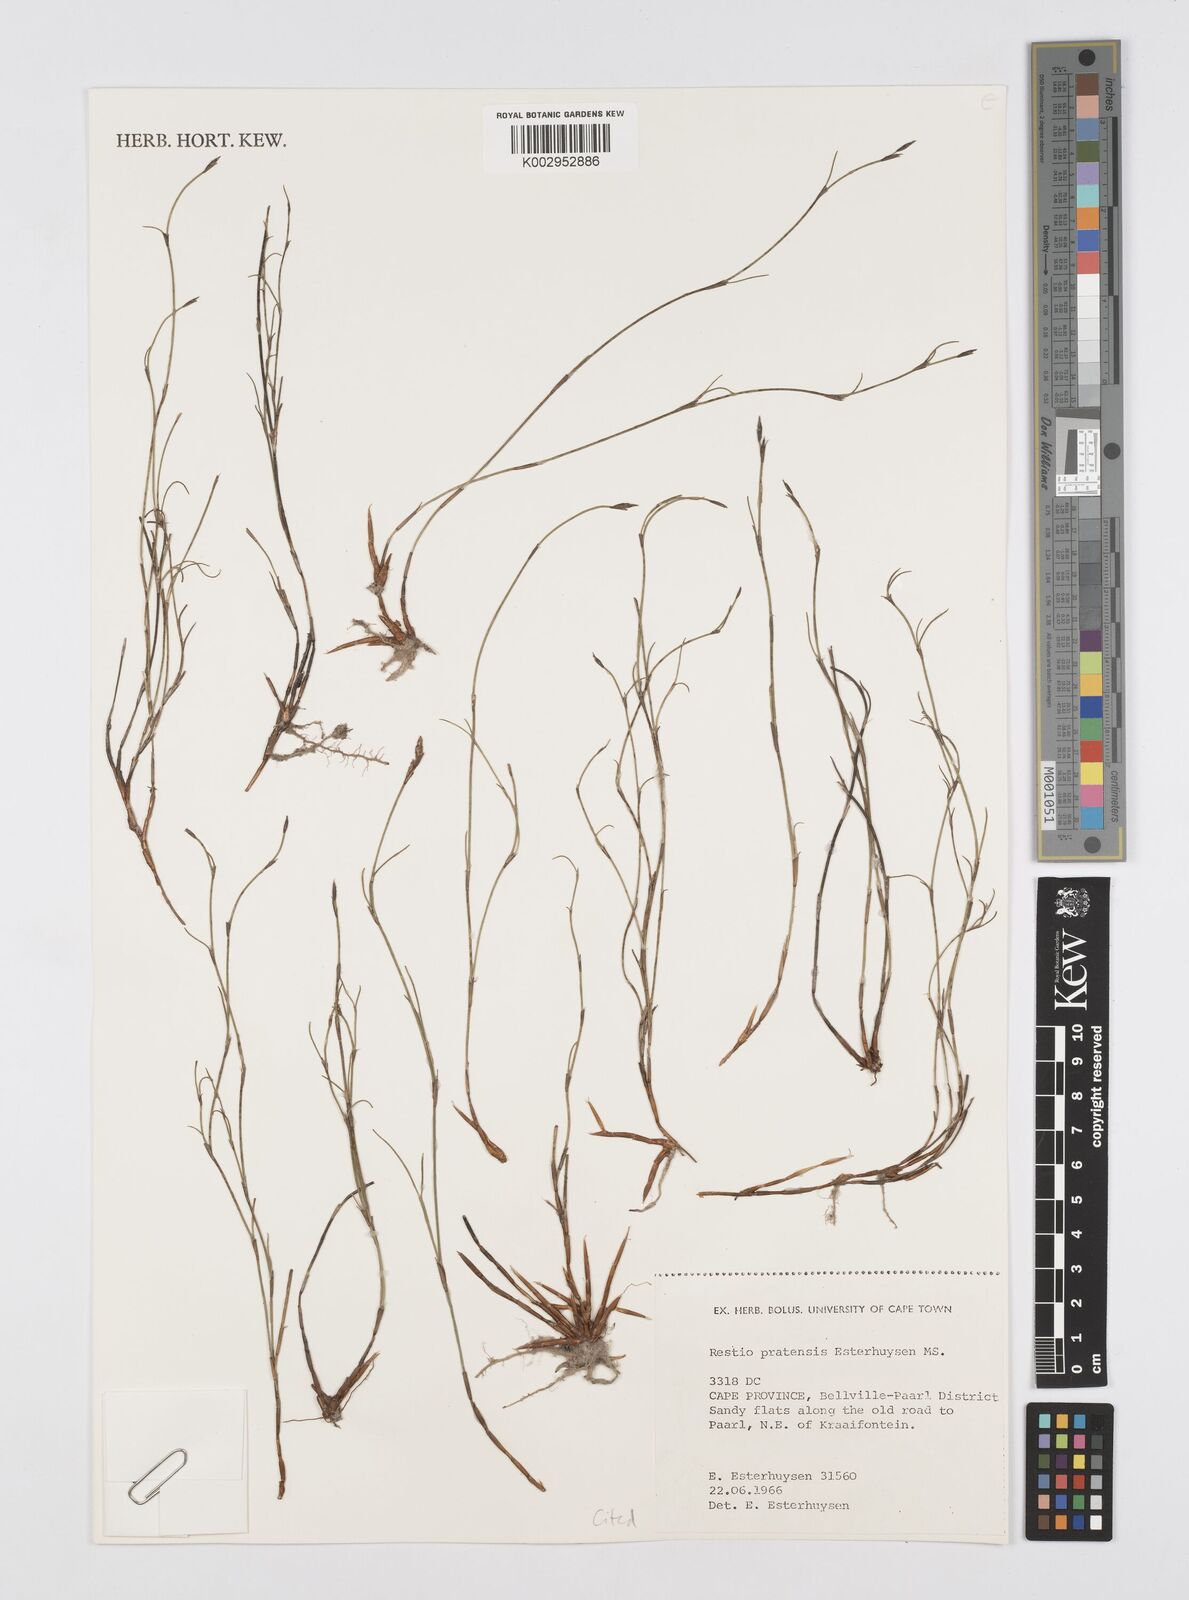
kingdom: Plantae
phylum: Tracheophyta
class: Liliopsida
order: Poales
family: Restionaceae
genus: Restio
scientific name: Restio pratensis
